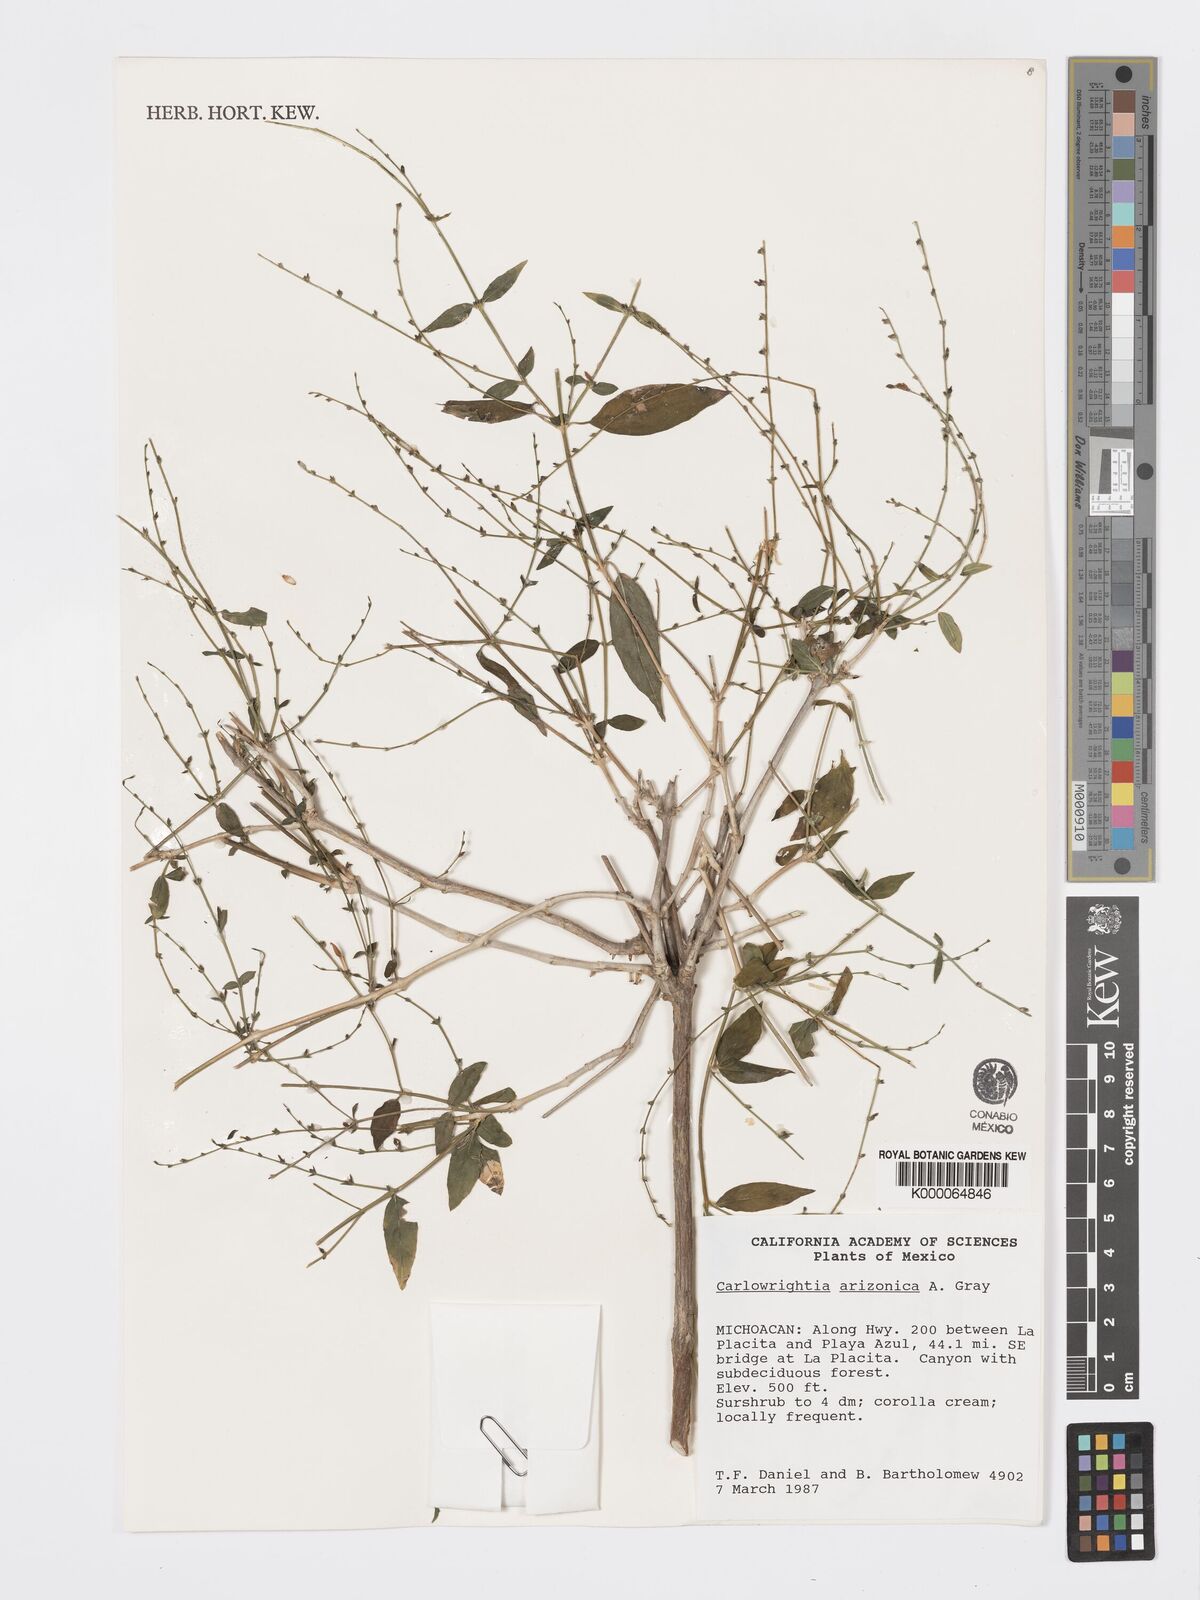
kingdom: Plantae
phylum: Tracheophyta
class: Magnoliopsida
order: Lamiales
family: Acanthaceae
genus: Carlowrightia
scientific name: Carlowrightia arizonica
